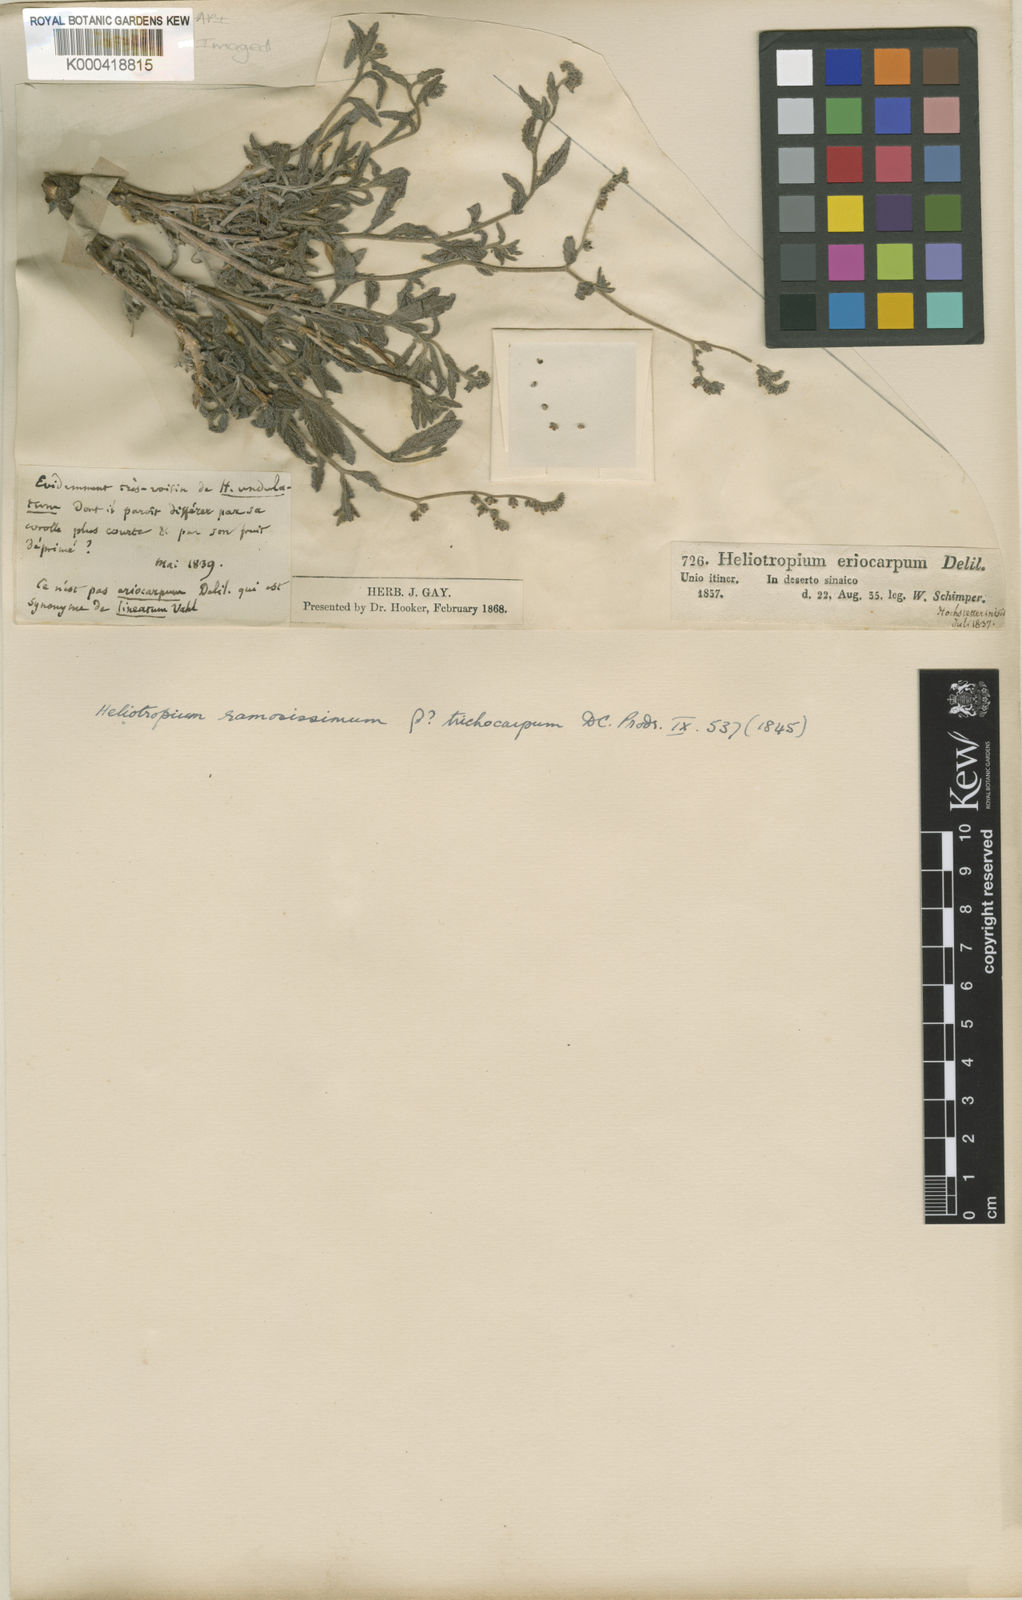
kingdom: Plantae
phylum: Tracheophyta
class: Magnoliopsida
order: Boraginales
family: Heliotropiaceae
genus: Heliotropium
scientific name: Heliotropium
